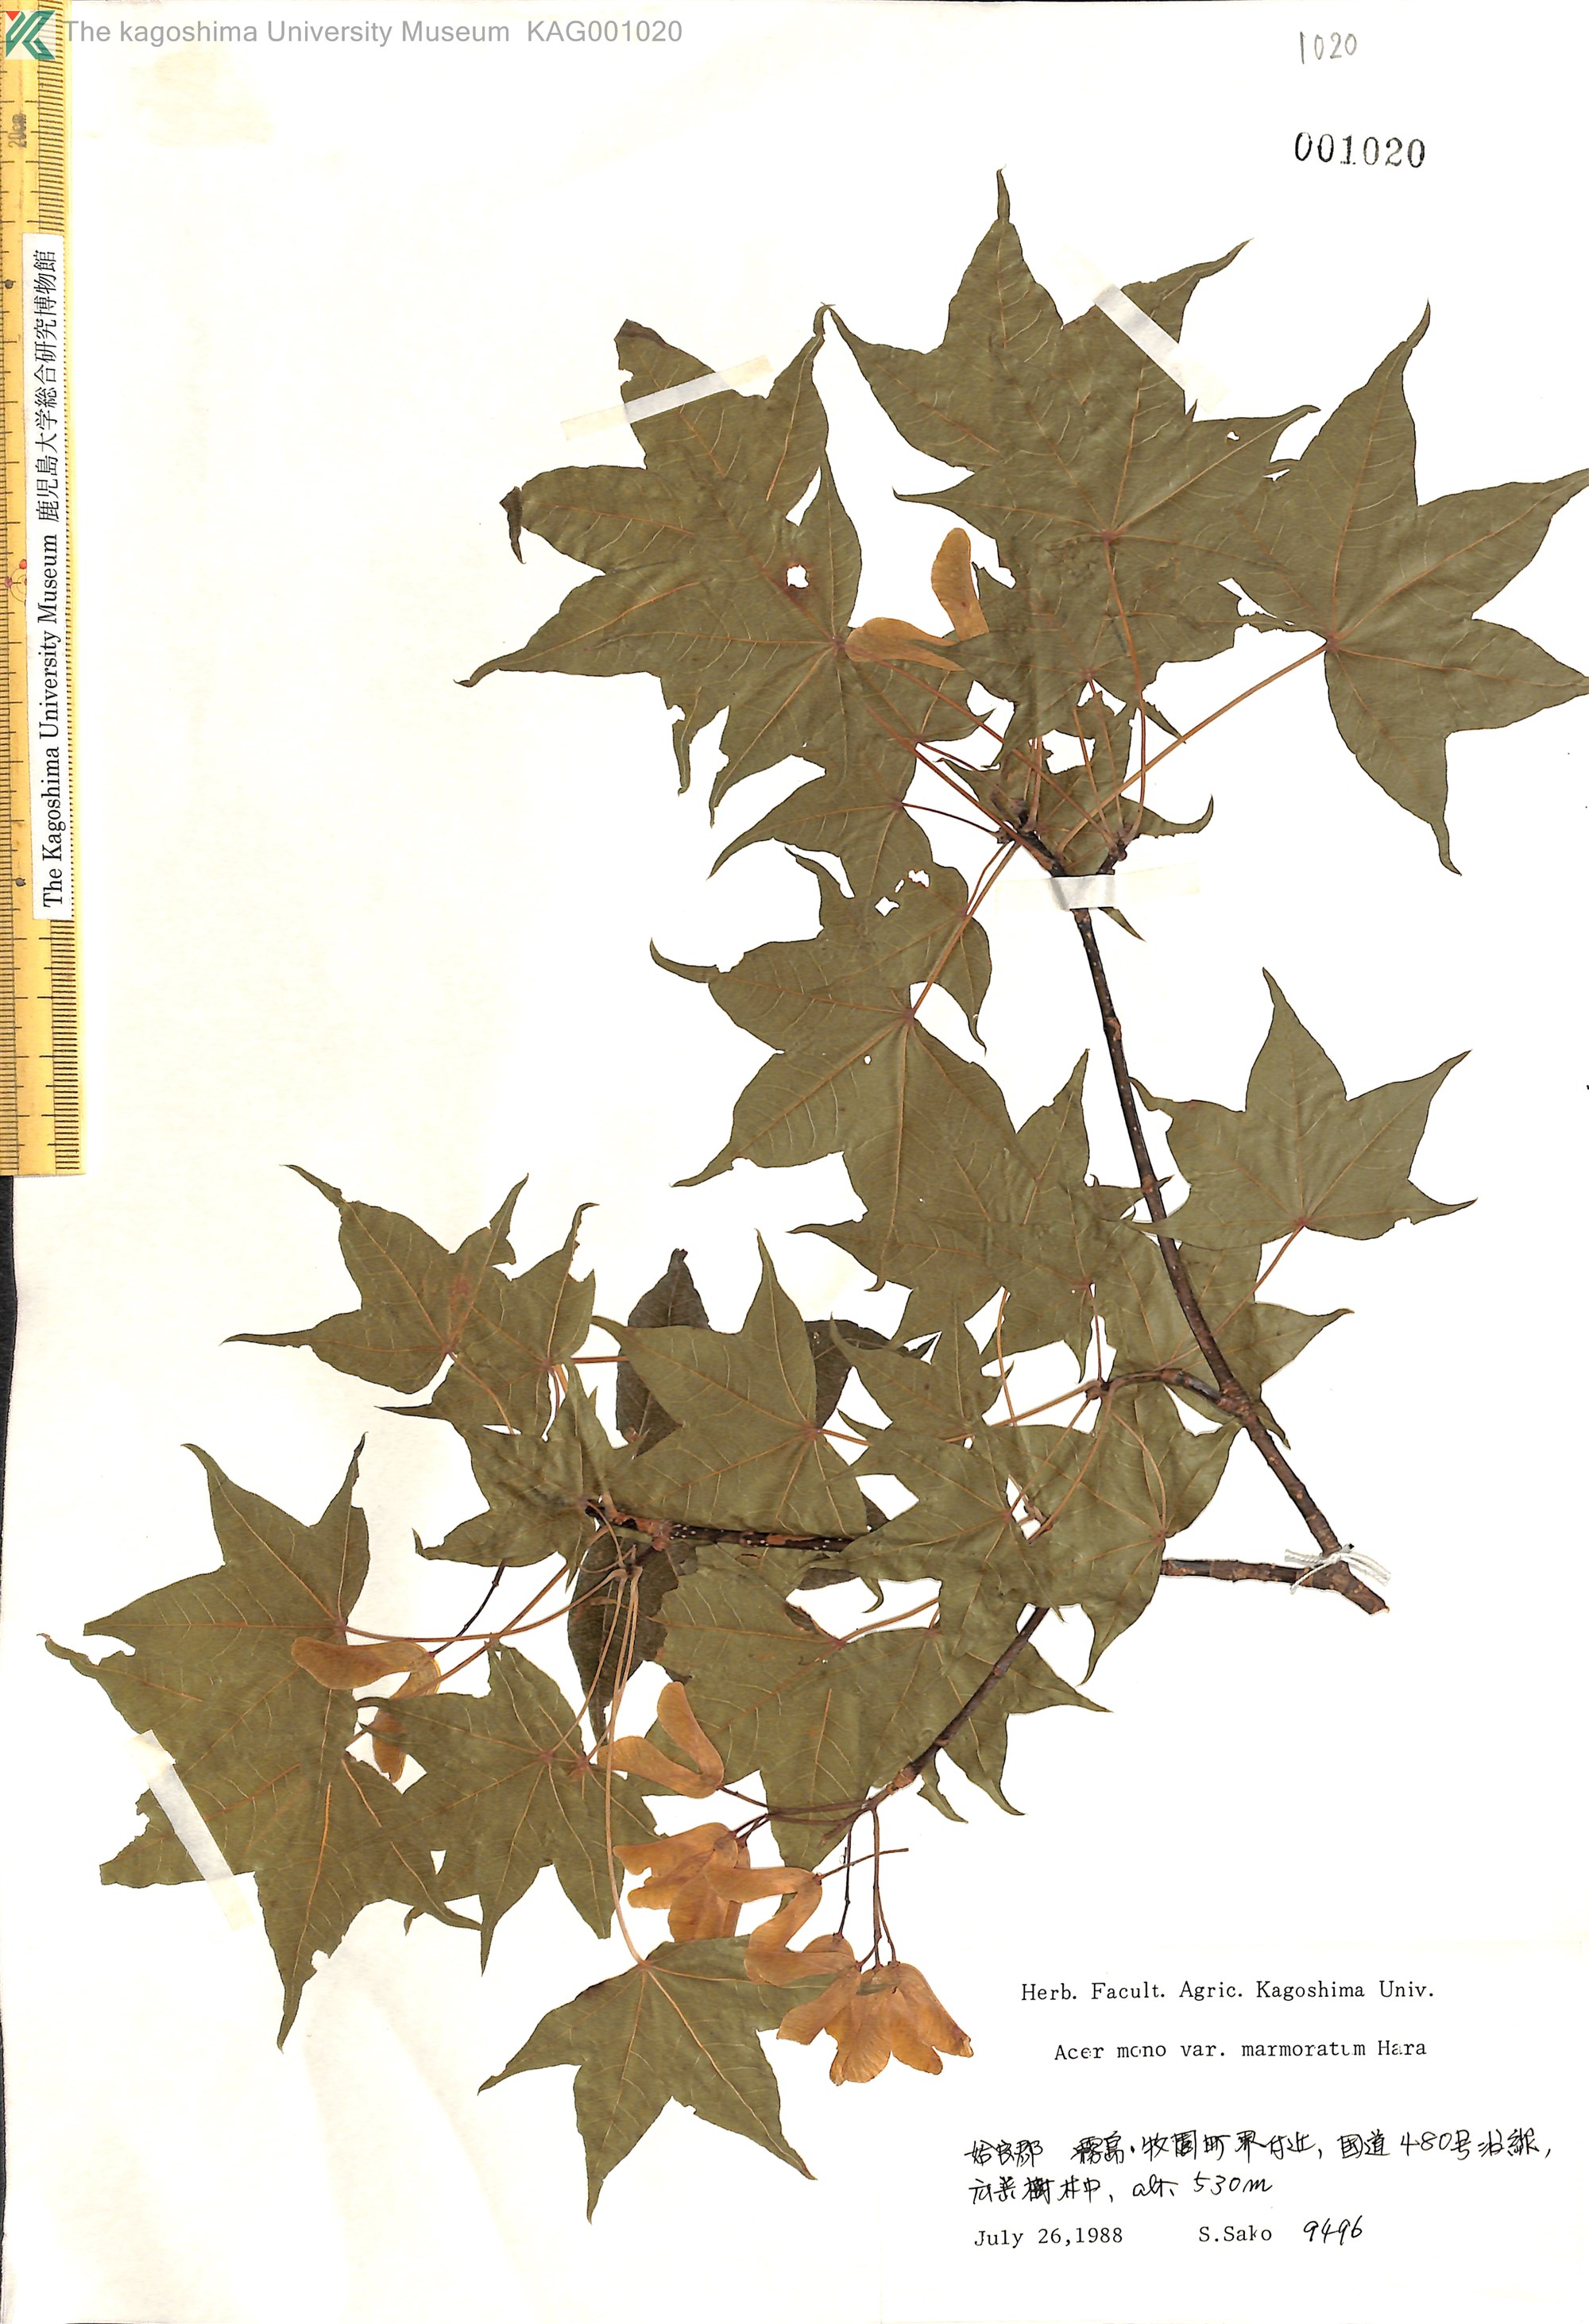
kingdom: Plantae
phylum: Tracheophyta
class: Magnoliopsida
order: Sapindales
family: Sapindaceae
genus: Acer
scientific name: Acer pictum
